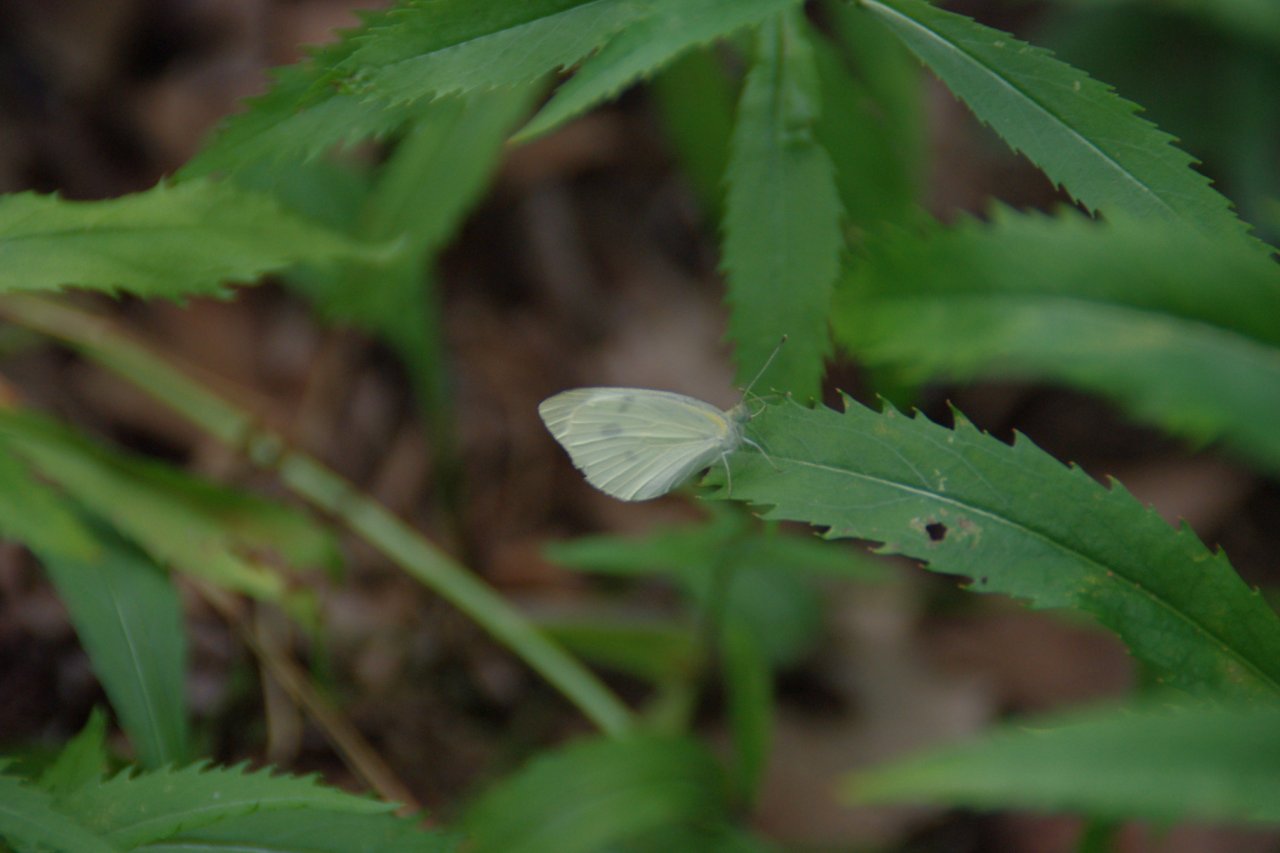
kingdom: Animalia
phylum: Arthropoda
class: Insecta
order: Lepidoptera
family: Pieridae
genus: Pieris
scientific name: Pieris rapae
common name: Cabbage White
